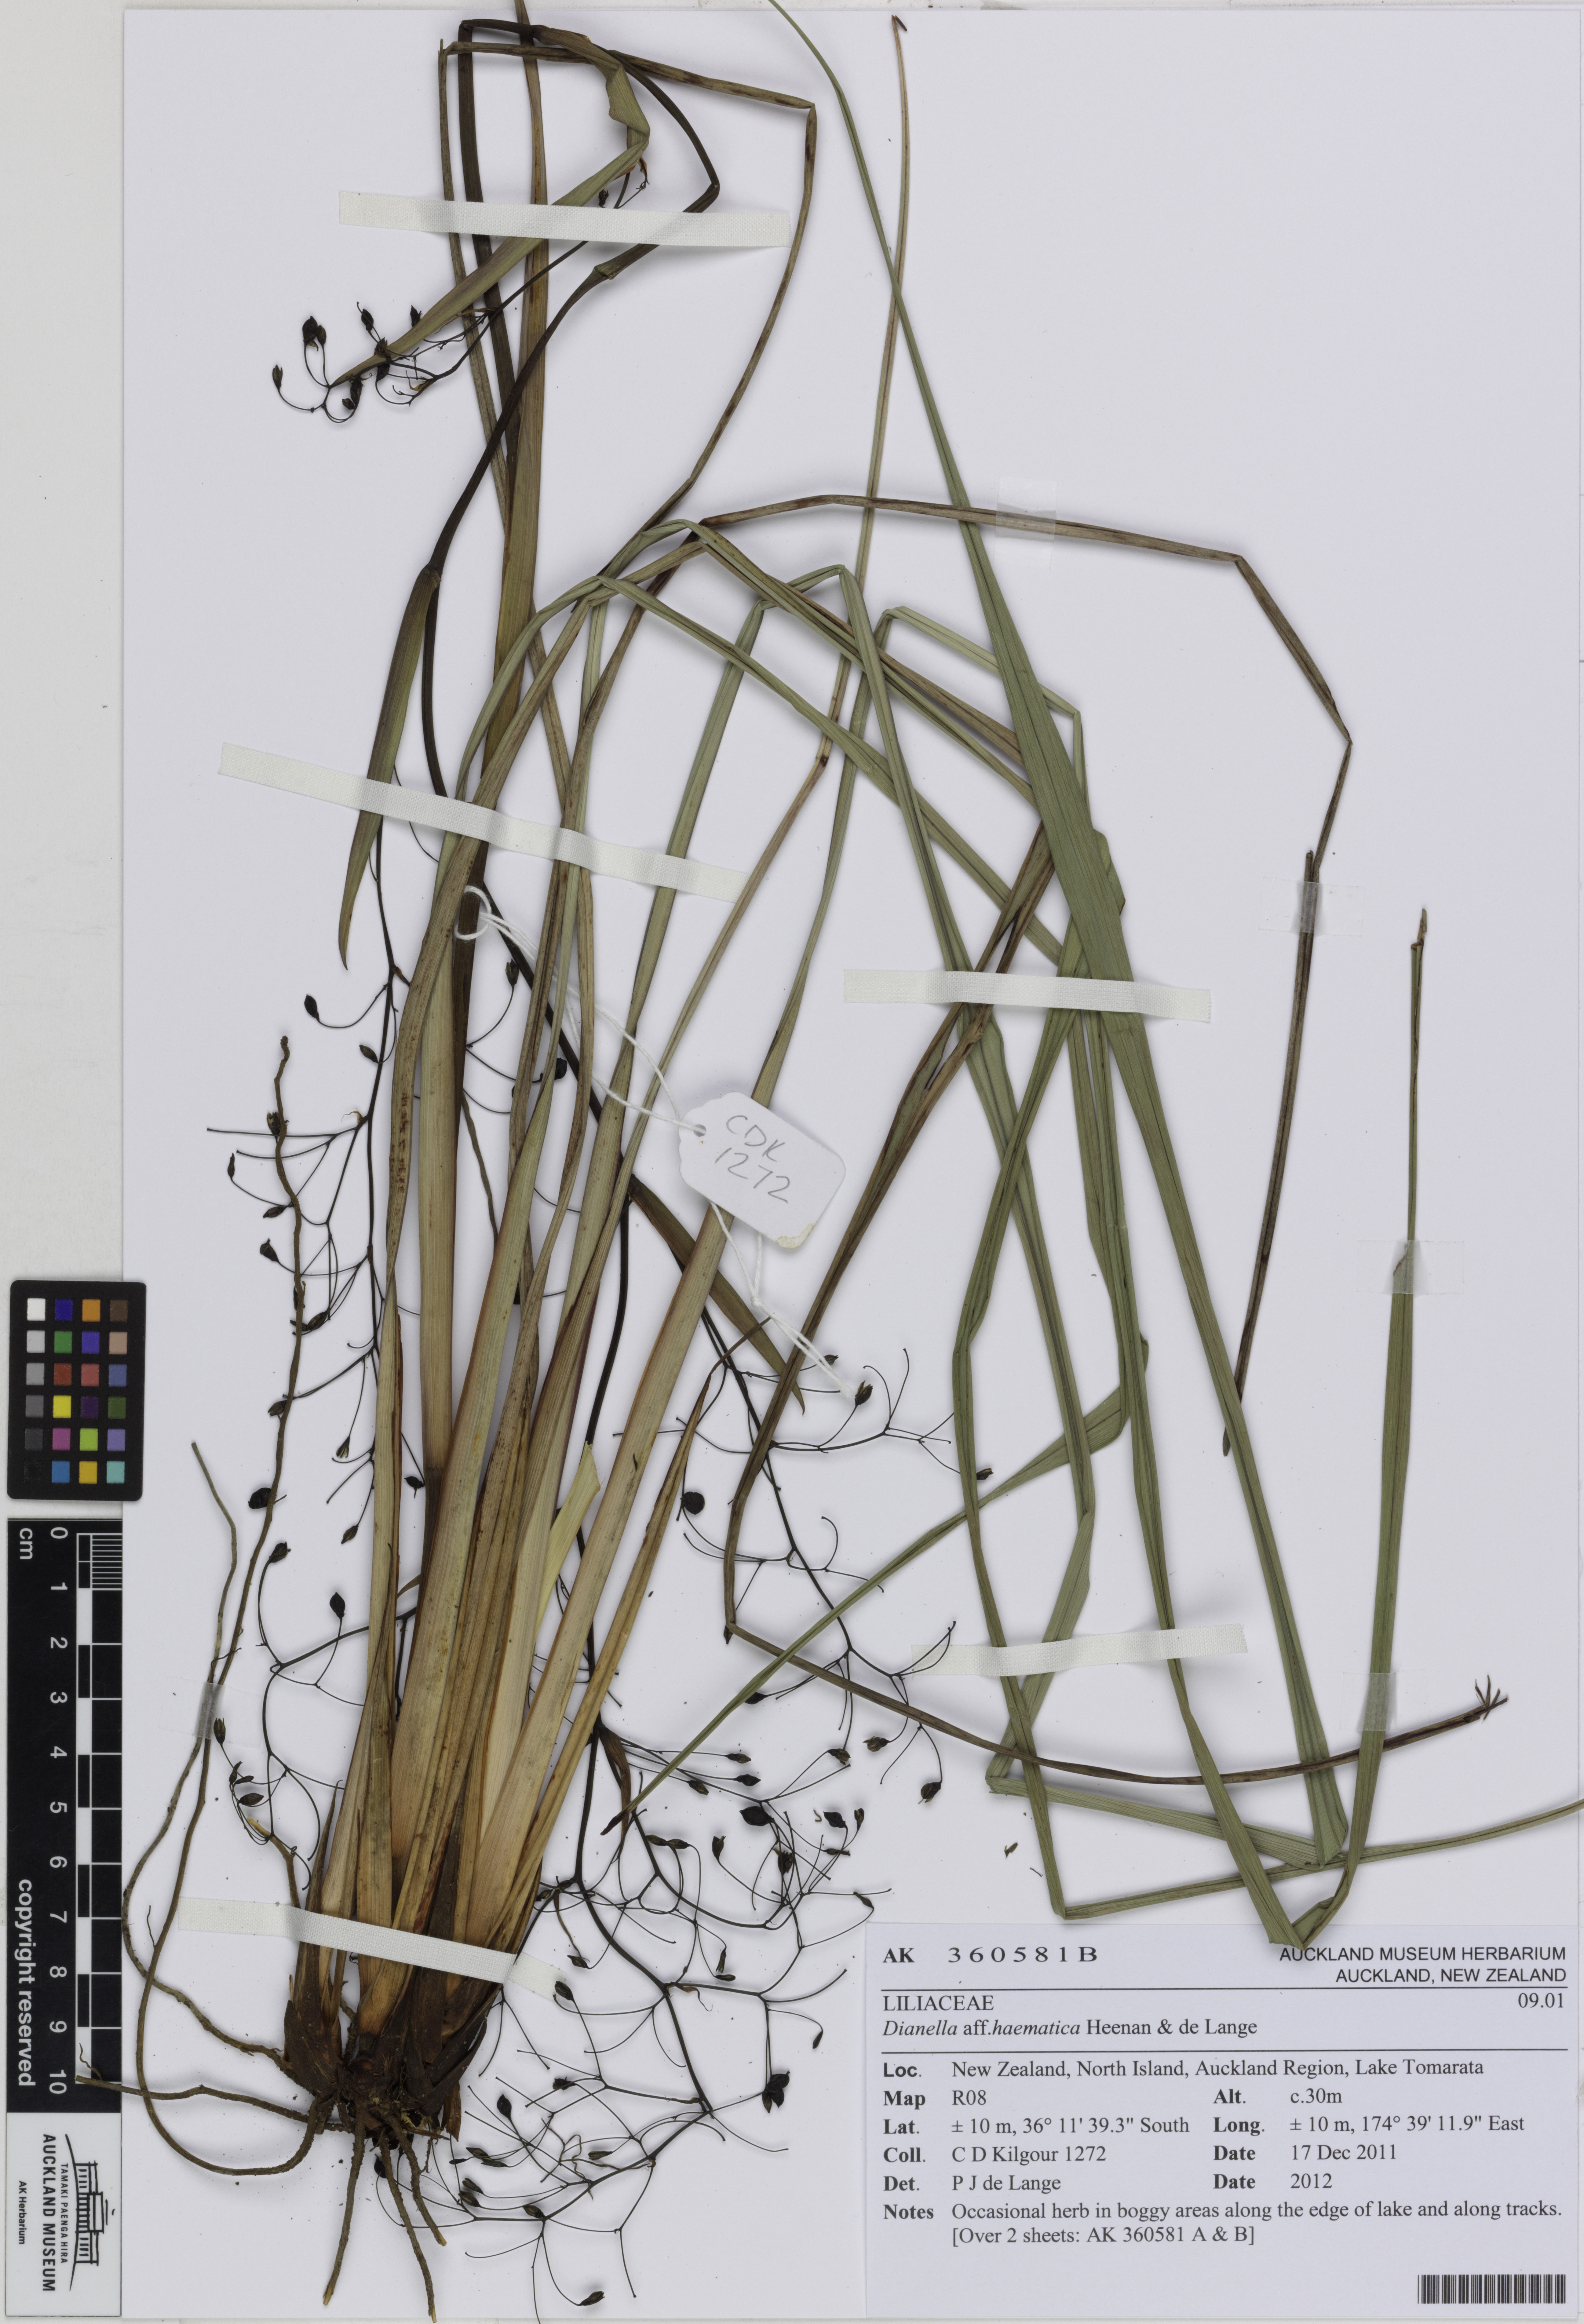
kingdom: Plantae
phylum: Tracheophyta
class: Liliopsida
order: Asparagales
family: Asphodelaceae
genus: Dianella
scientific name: Dianella haematica
